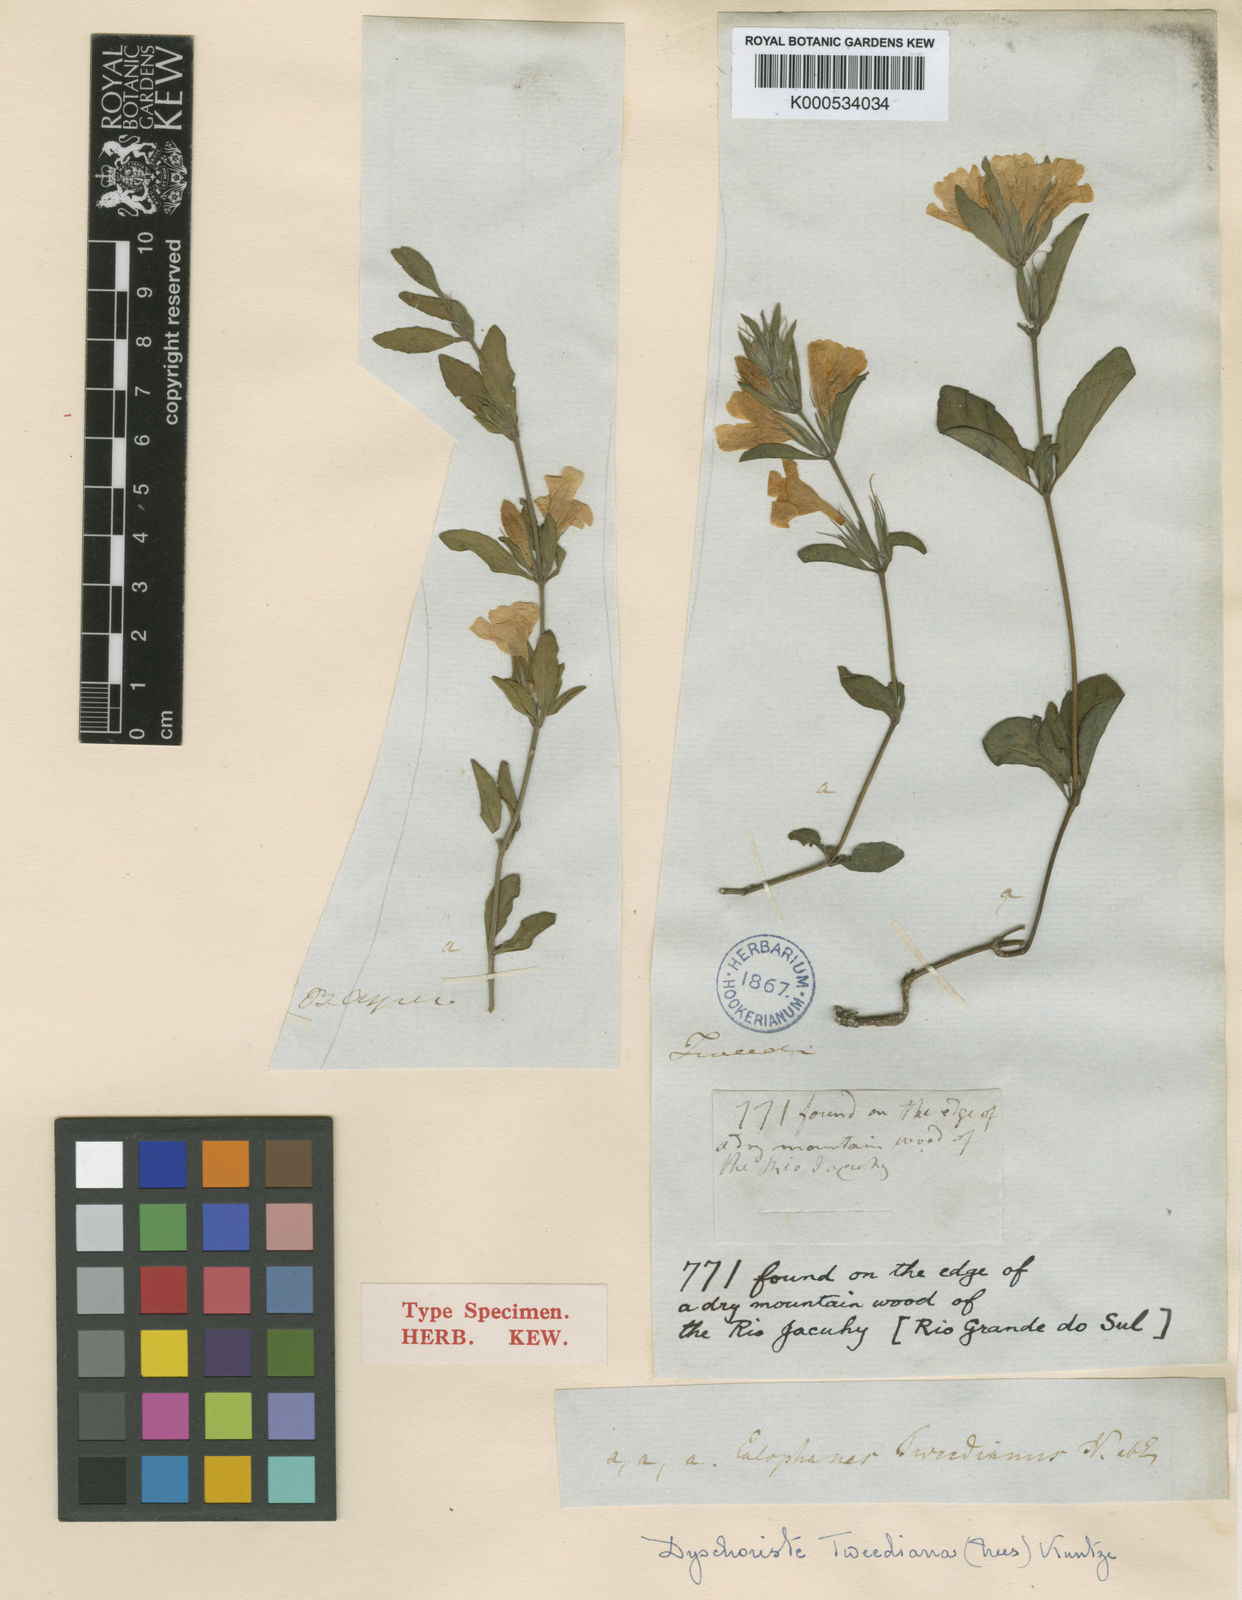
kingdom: Plantae
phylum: Tracheophyta
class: Magnoliopsida
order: Lamiales
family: Acanthaceae
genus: Dyschoriste
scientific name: Dyschoriste
